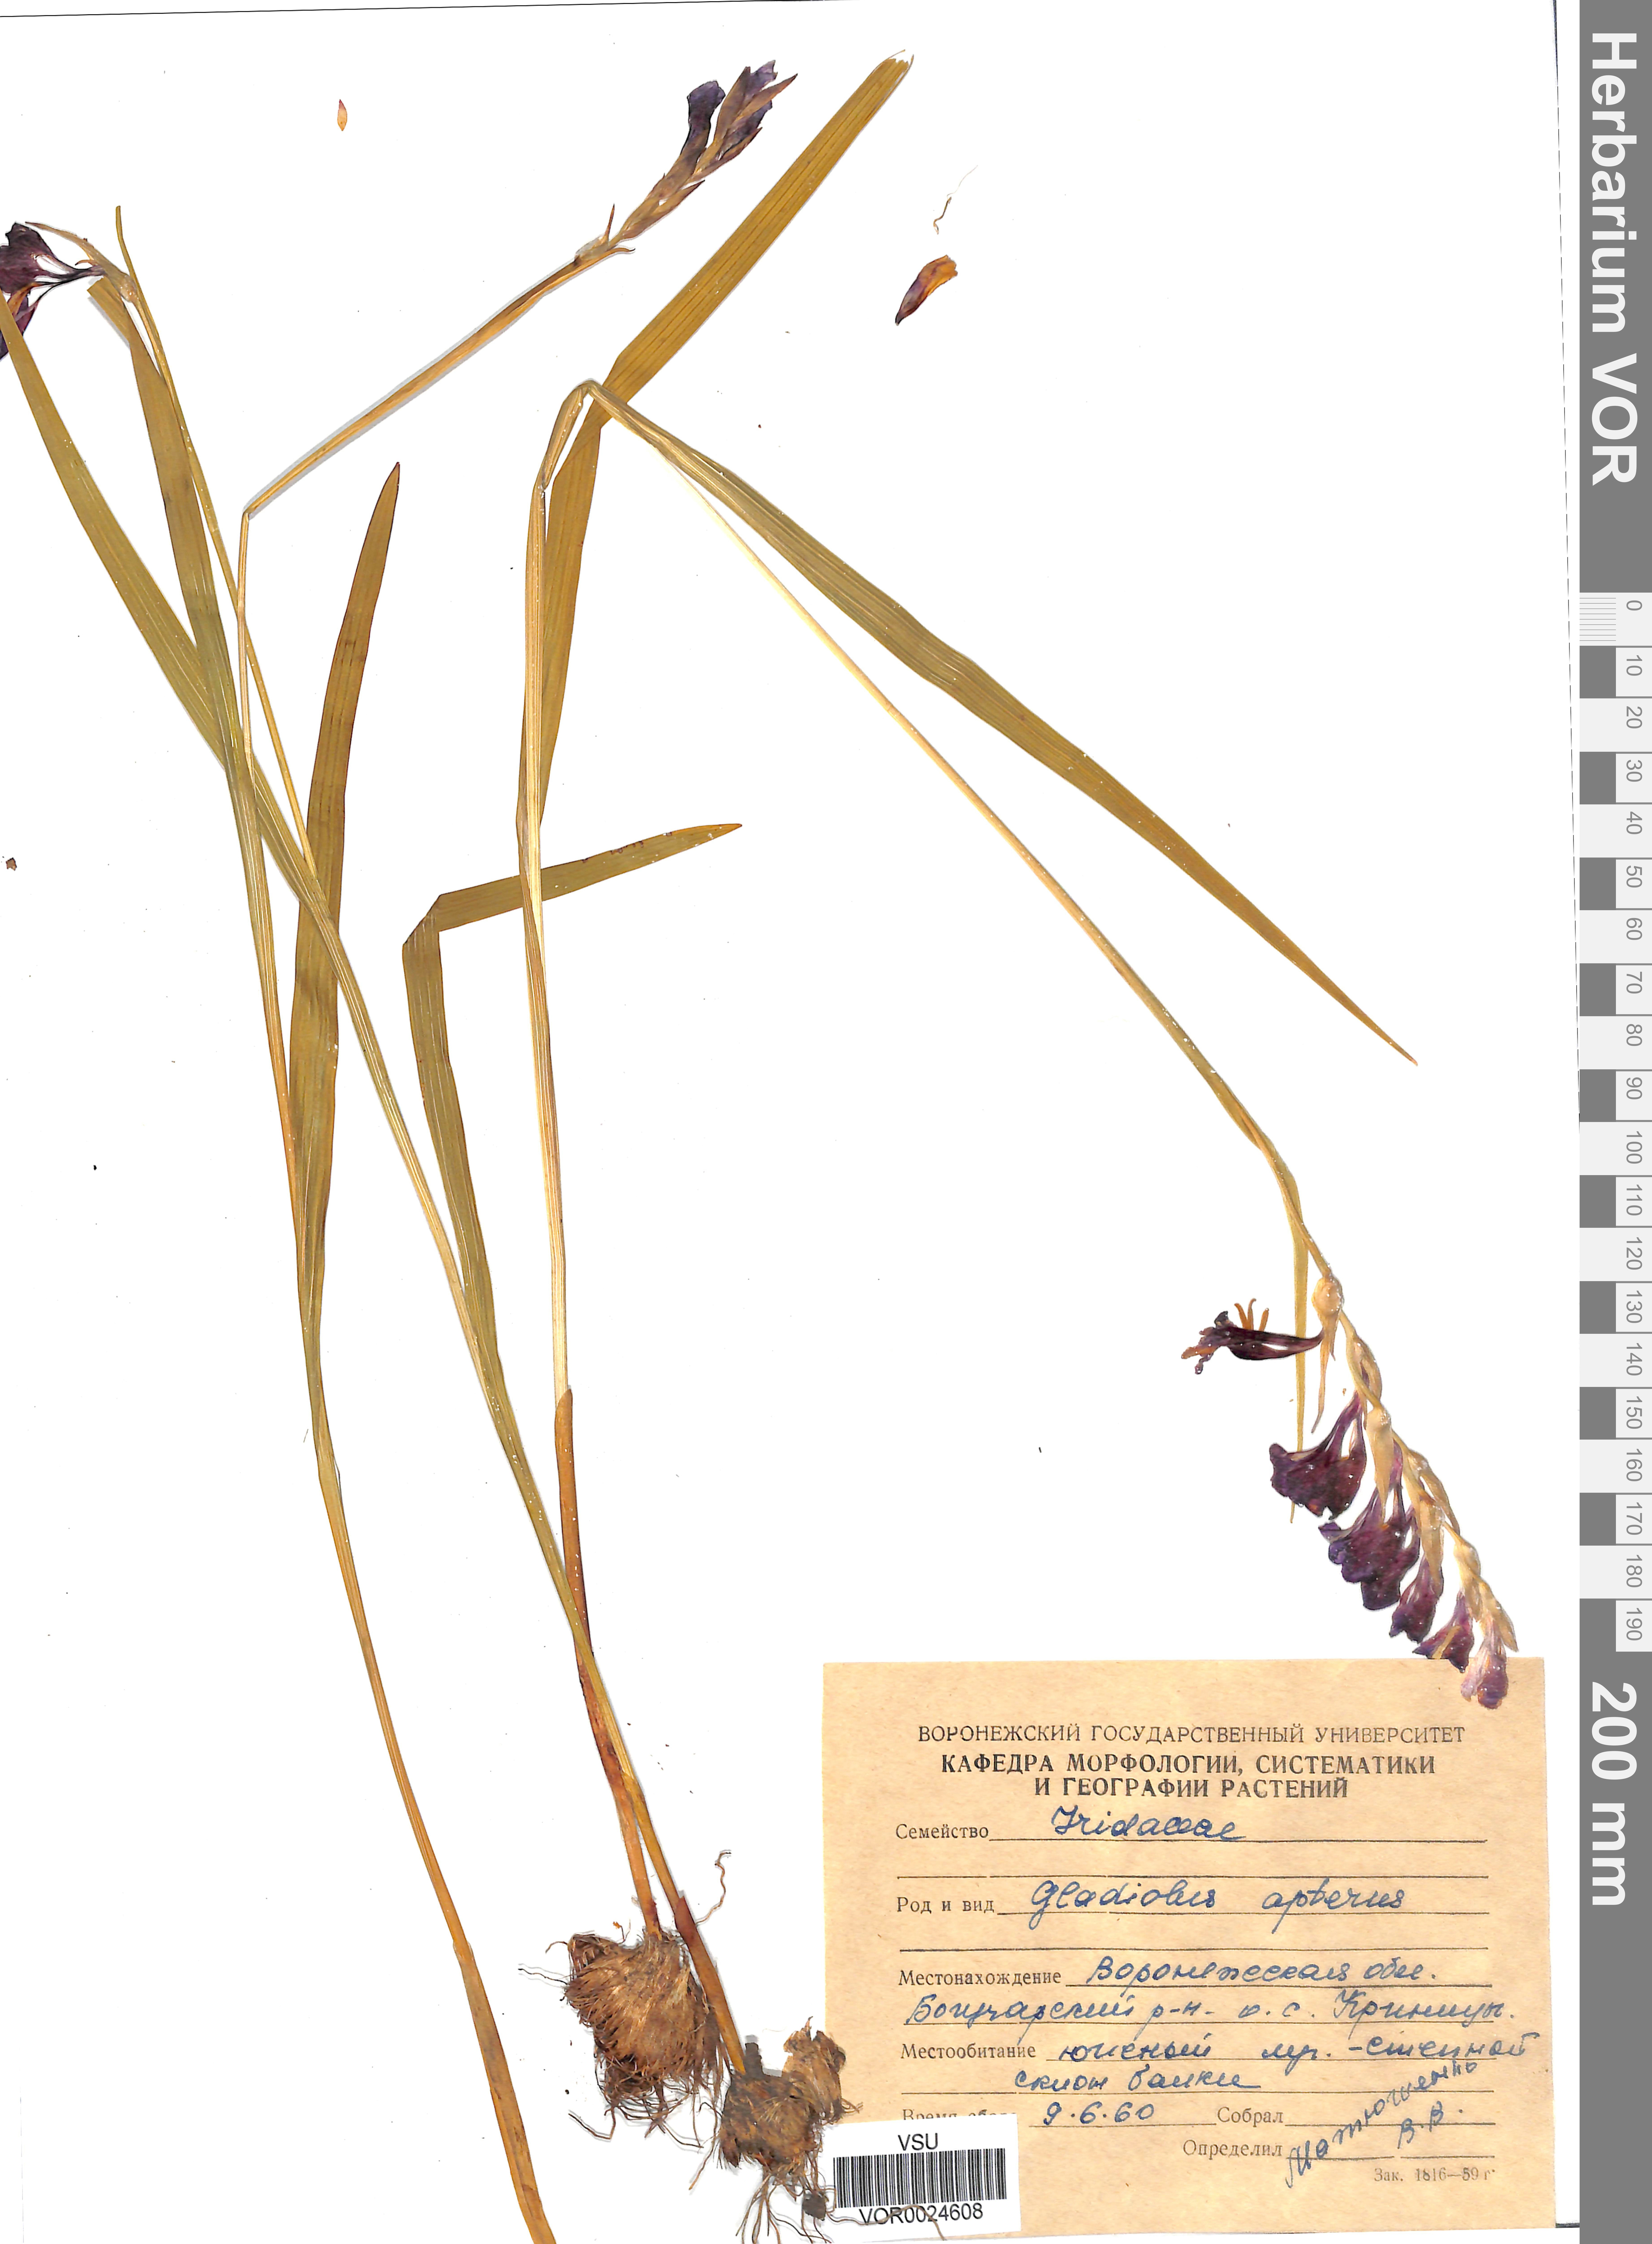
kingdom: Plantae
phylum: Tracheophyta
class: Liliopsida
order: Asparagales
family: Iridaceae
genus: Gladiolus
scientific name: Gladiolus tenuis
